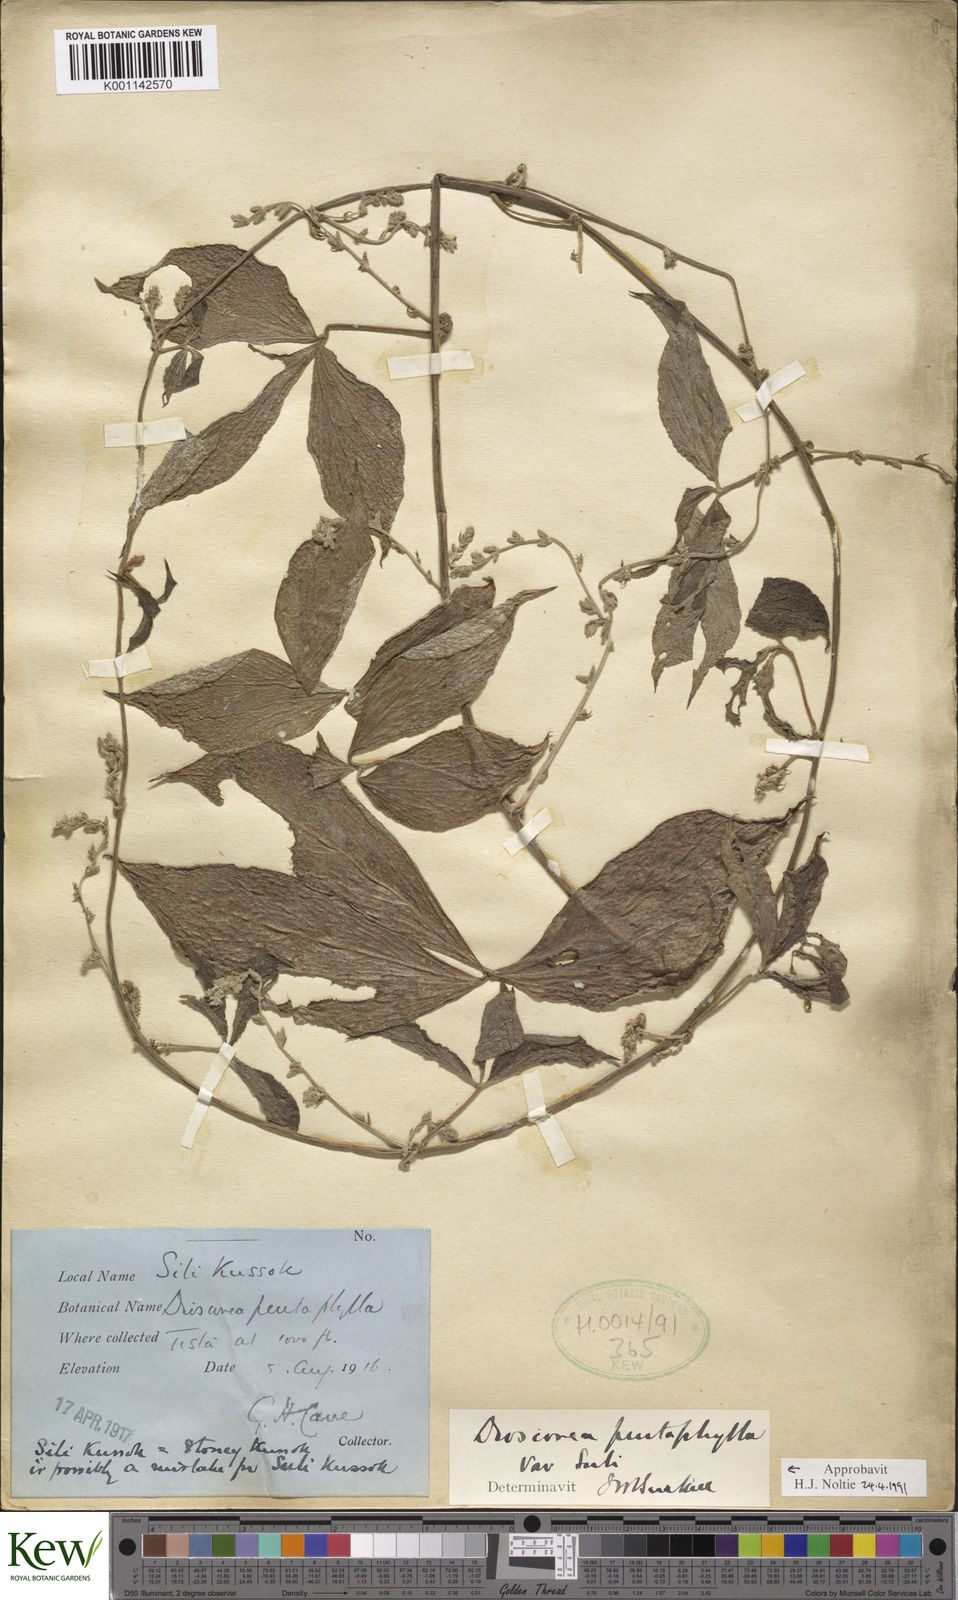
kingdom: Plantae
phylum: Tracheophyta
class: Liliopsida
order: Dioscoreales
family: Dioscoreaceae
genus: Dioscorea
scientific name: Dioscorea pentaphylla
